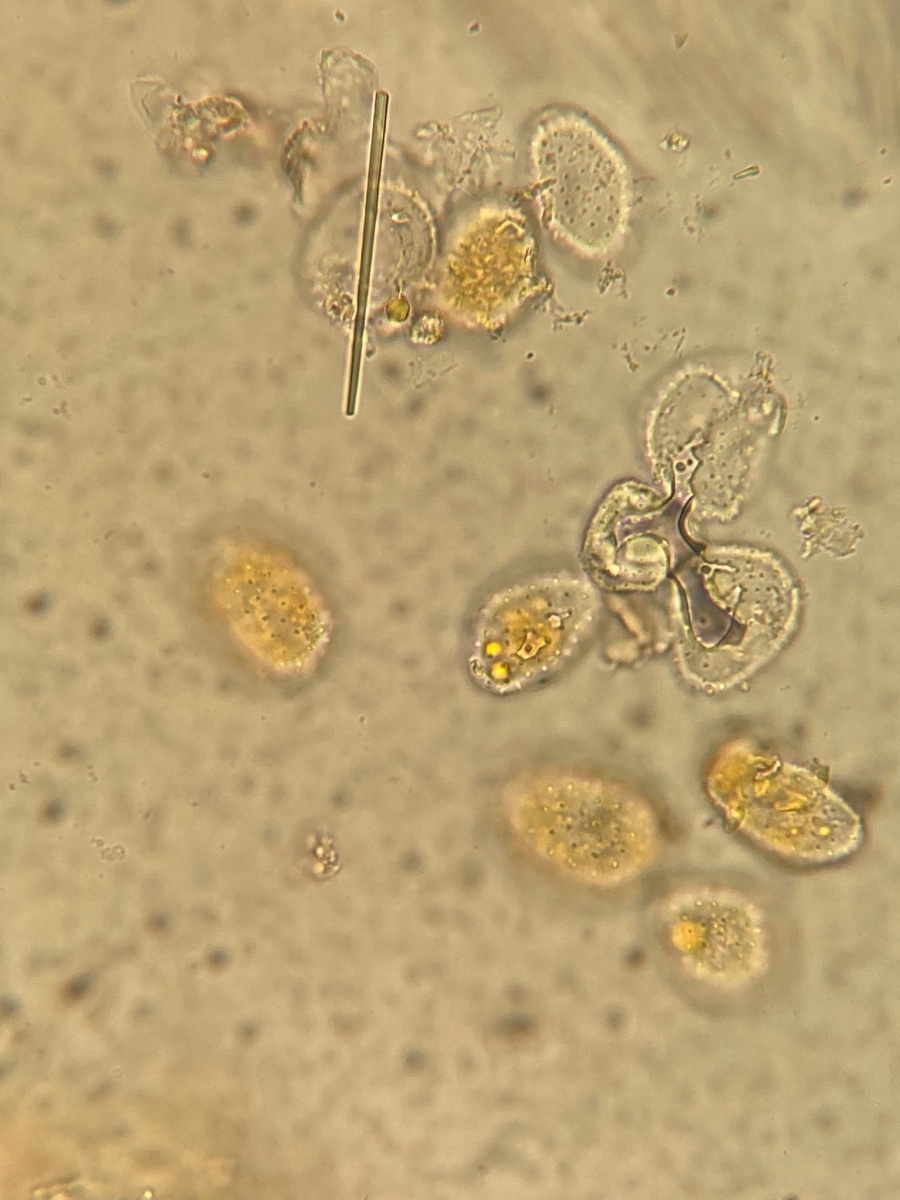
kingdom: Fungi
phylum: Basidiomycota
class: Pucciniomycetes
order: Pucciniales
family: Pucciniastraceae
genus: Pucciniastrum
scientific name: Pucciniastrum circaeae
